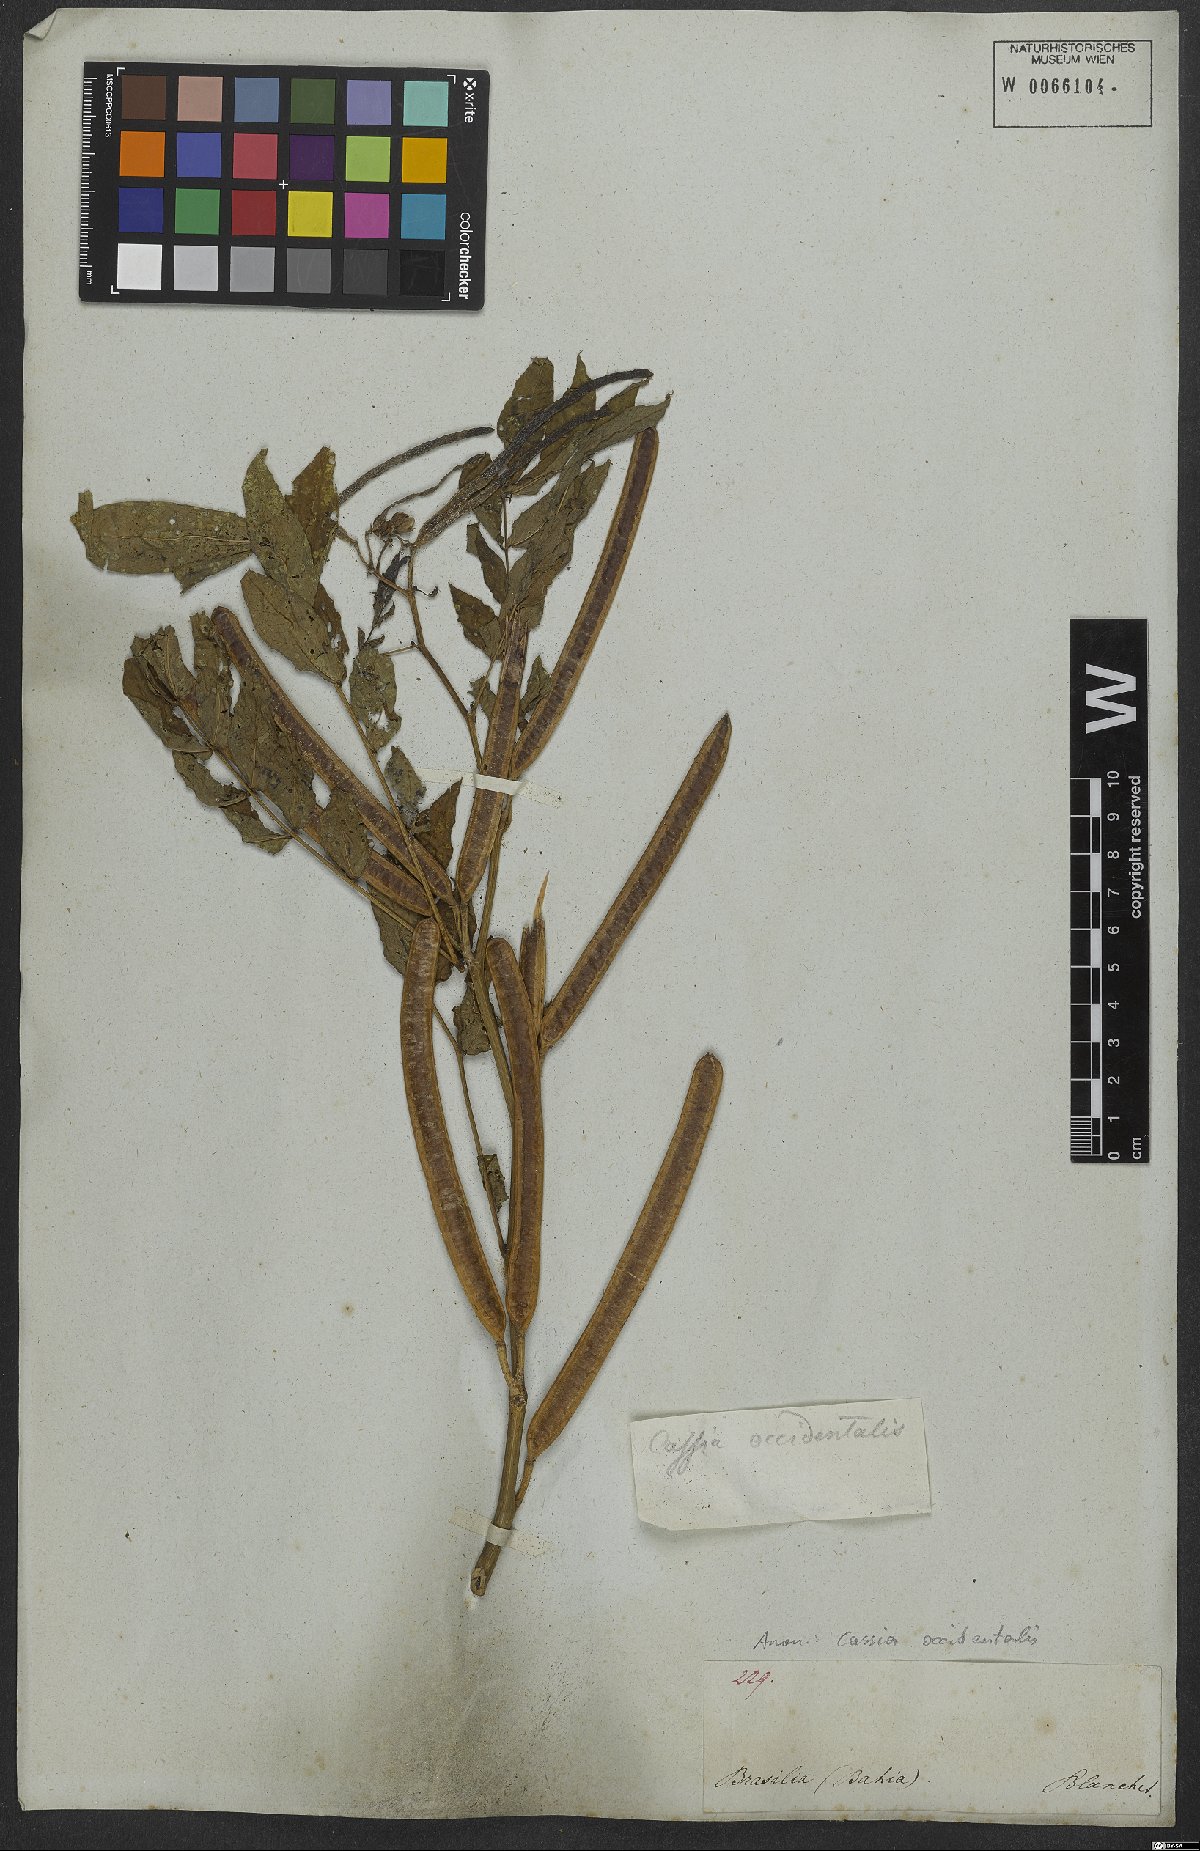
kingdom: Plantae
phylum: Tracheophyta
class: Magnoliopsida
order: Fabales
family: Fabaceae
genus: Senna
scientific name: Senna occidentalis
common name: Septicweed
